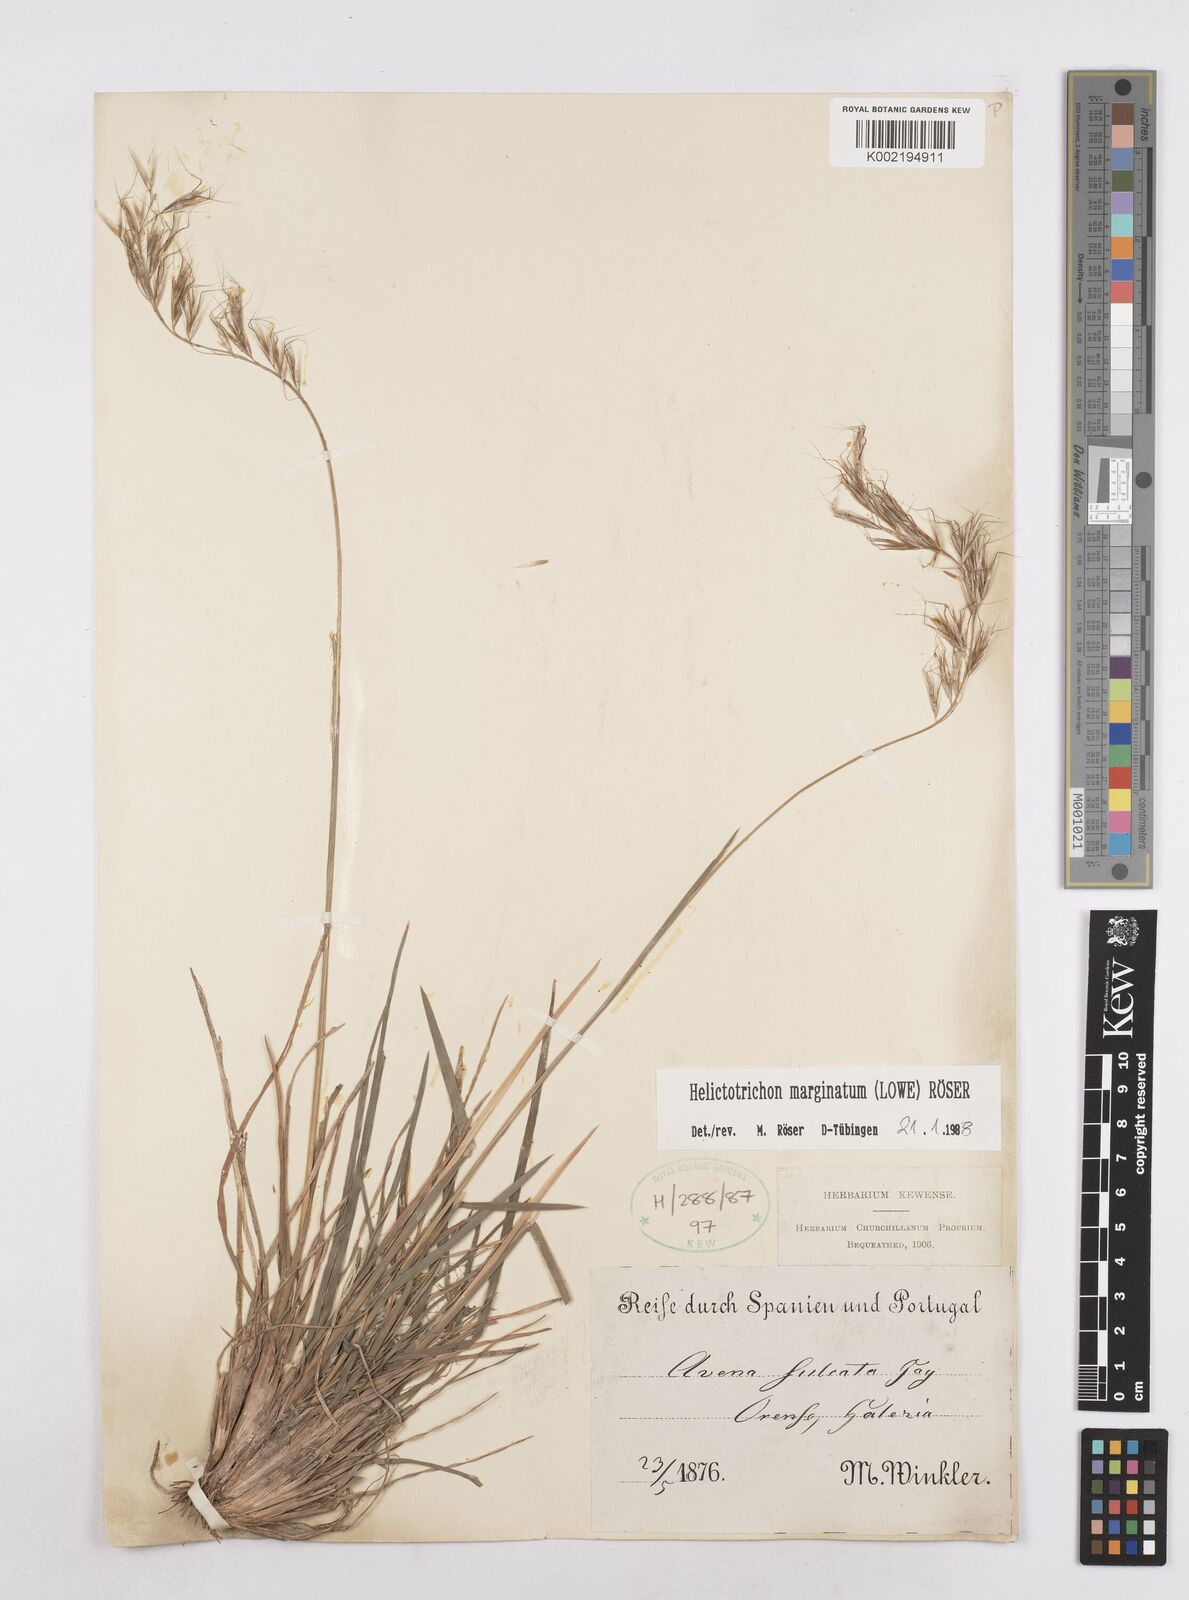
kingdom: Plantae
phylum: Tracheophyta
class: Liliopsida
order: Poales
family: Poaceae
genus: Helictotrichon
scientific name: Helictotrichon
